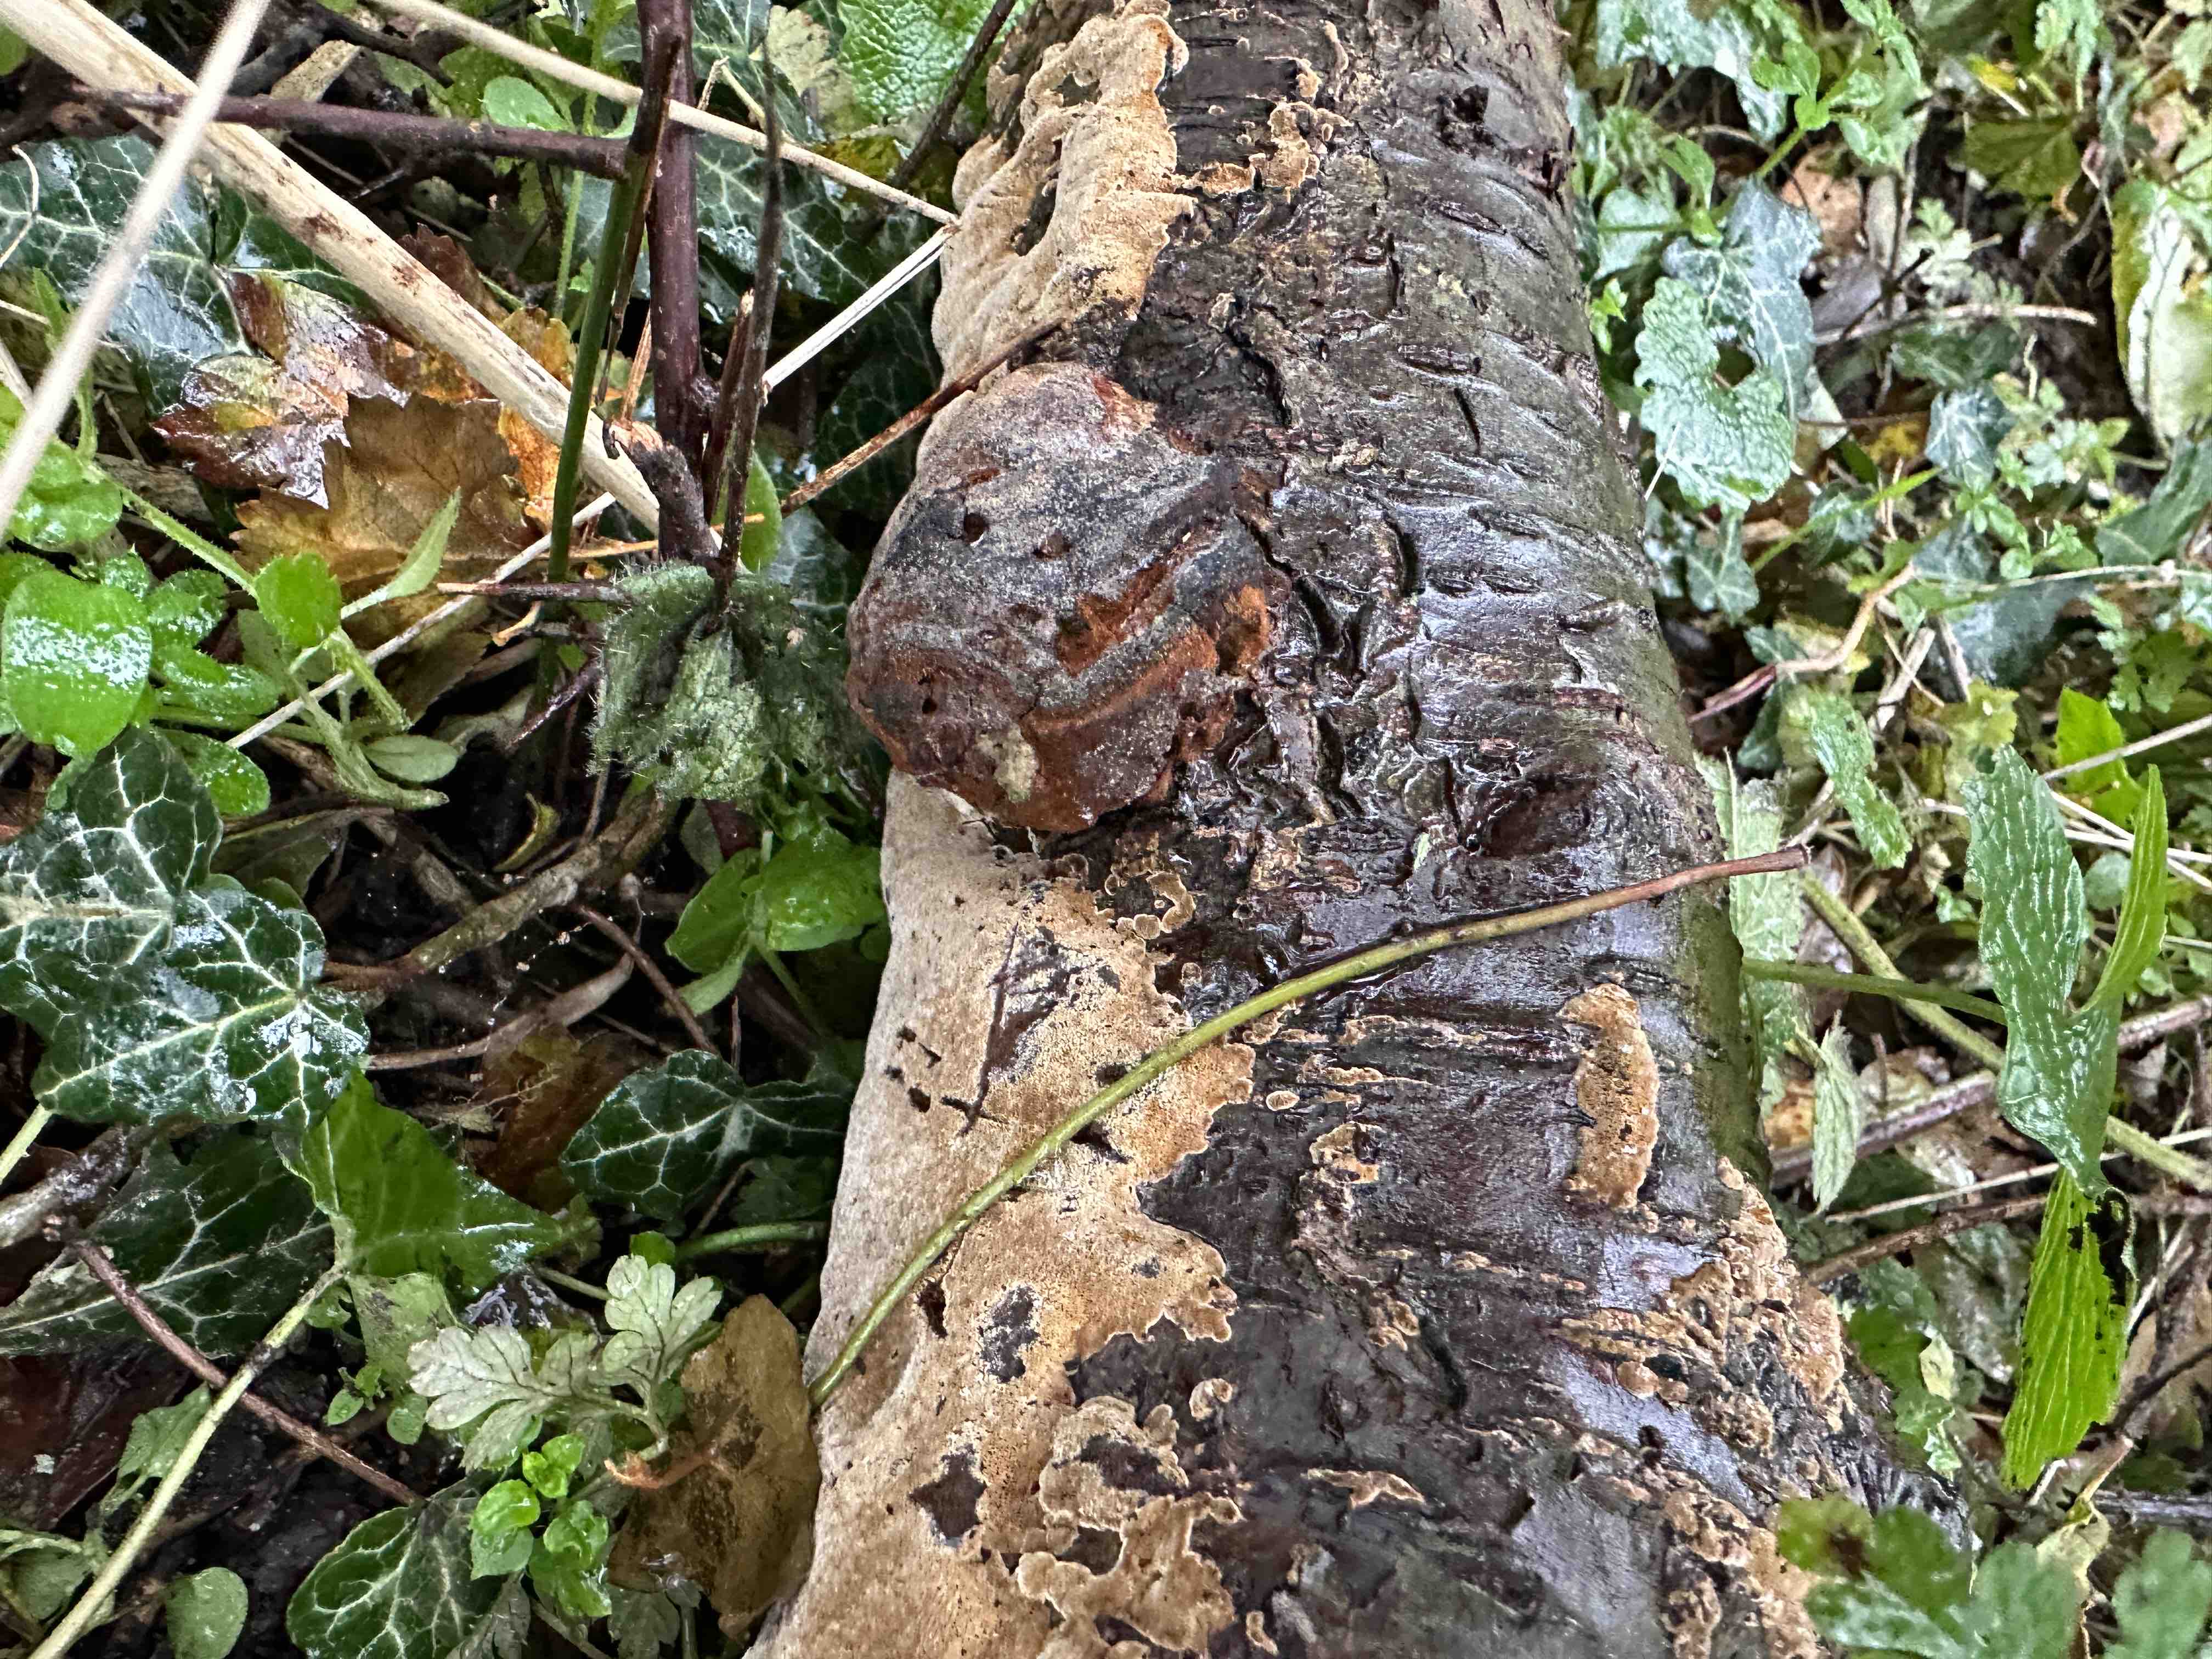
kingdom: Fungi
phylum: Basidiomycota
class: Agaricomycetes
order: Hymenochaetales
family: Hymenochaetaceae
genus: Phellinus
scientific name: Phellinus pomaceus
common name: blomme-ildporesvamp
